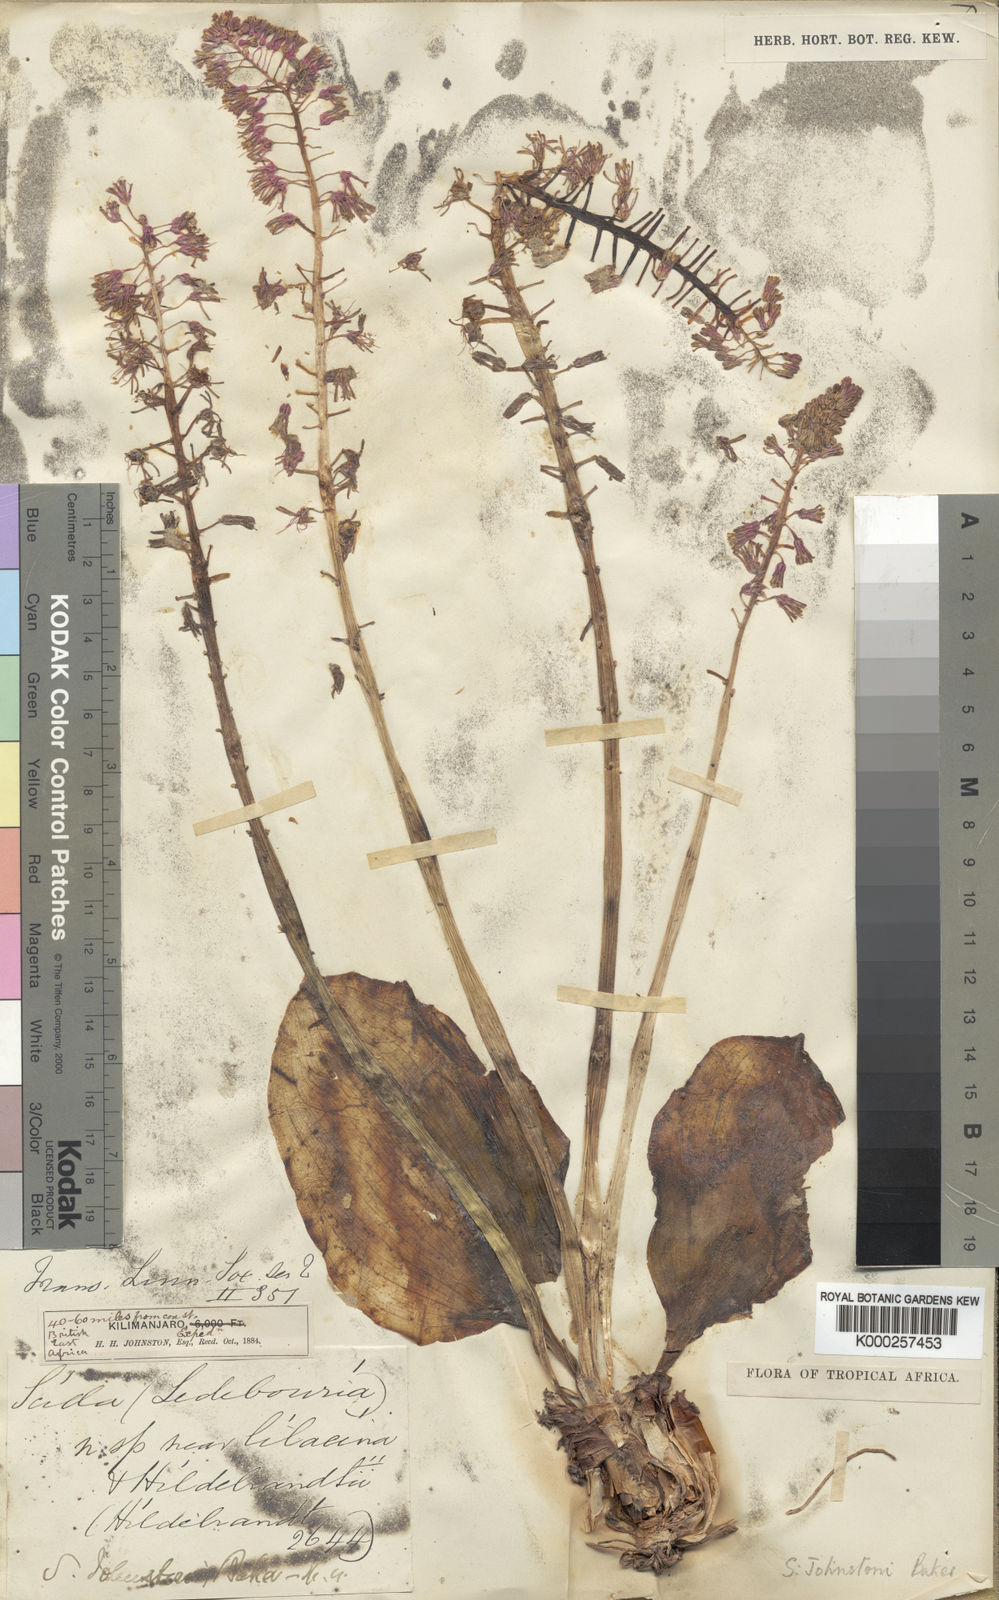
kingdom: Plantae
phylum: Tracheophyta
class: Liliopsida
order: Asparagales
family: Asparagaceae
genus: Ledebouria
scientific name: Ledebouria kirkii
